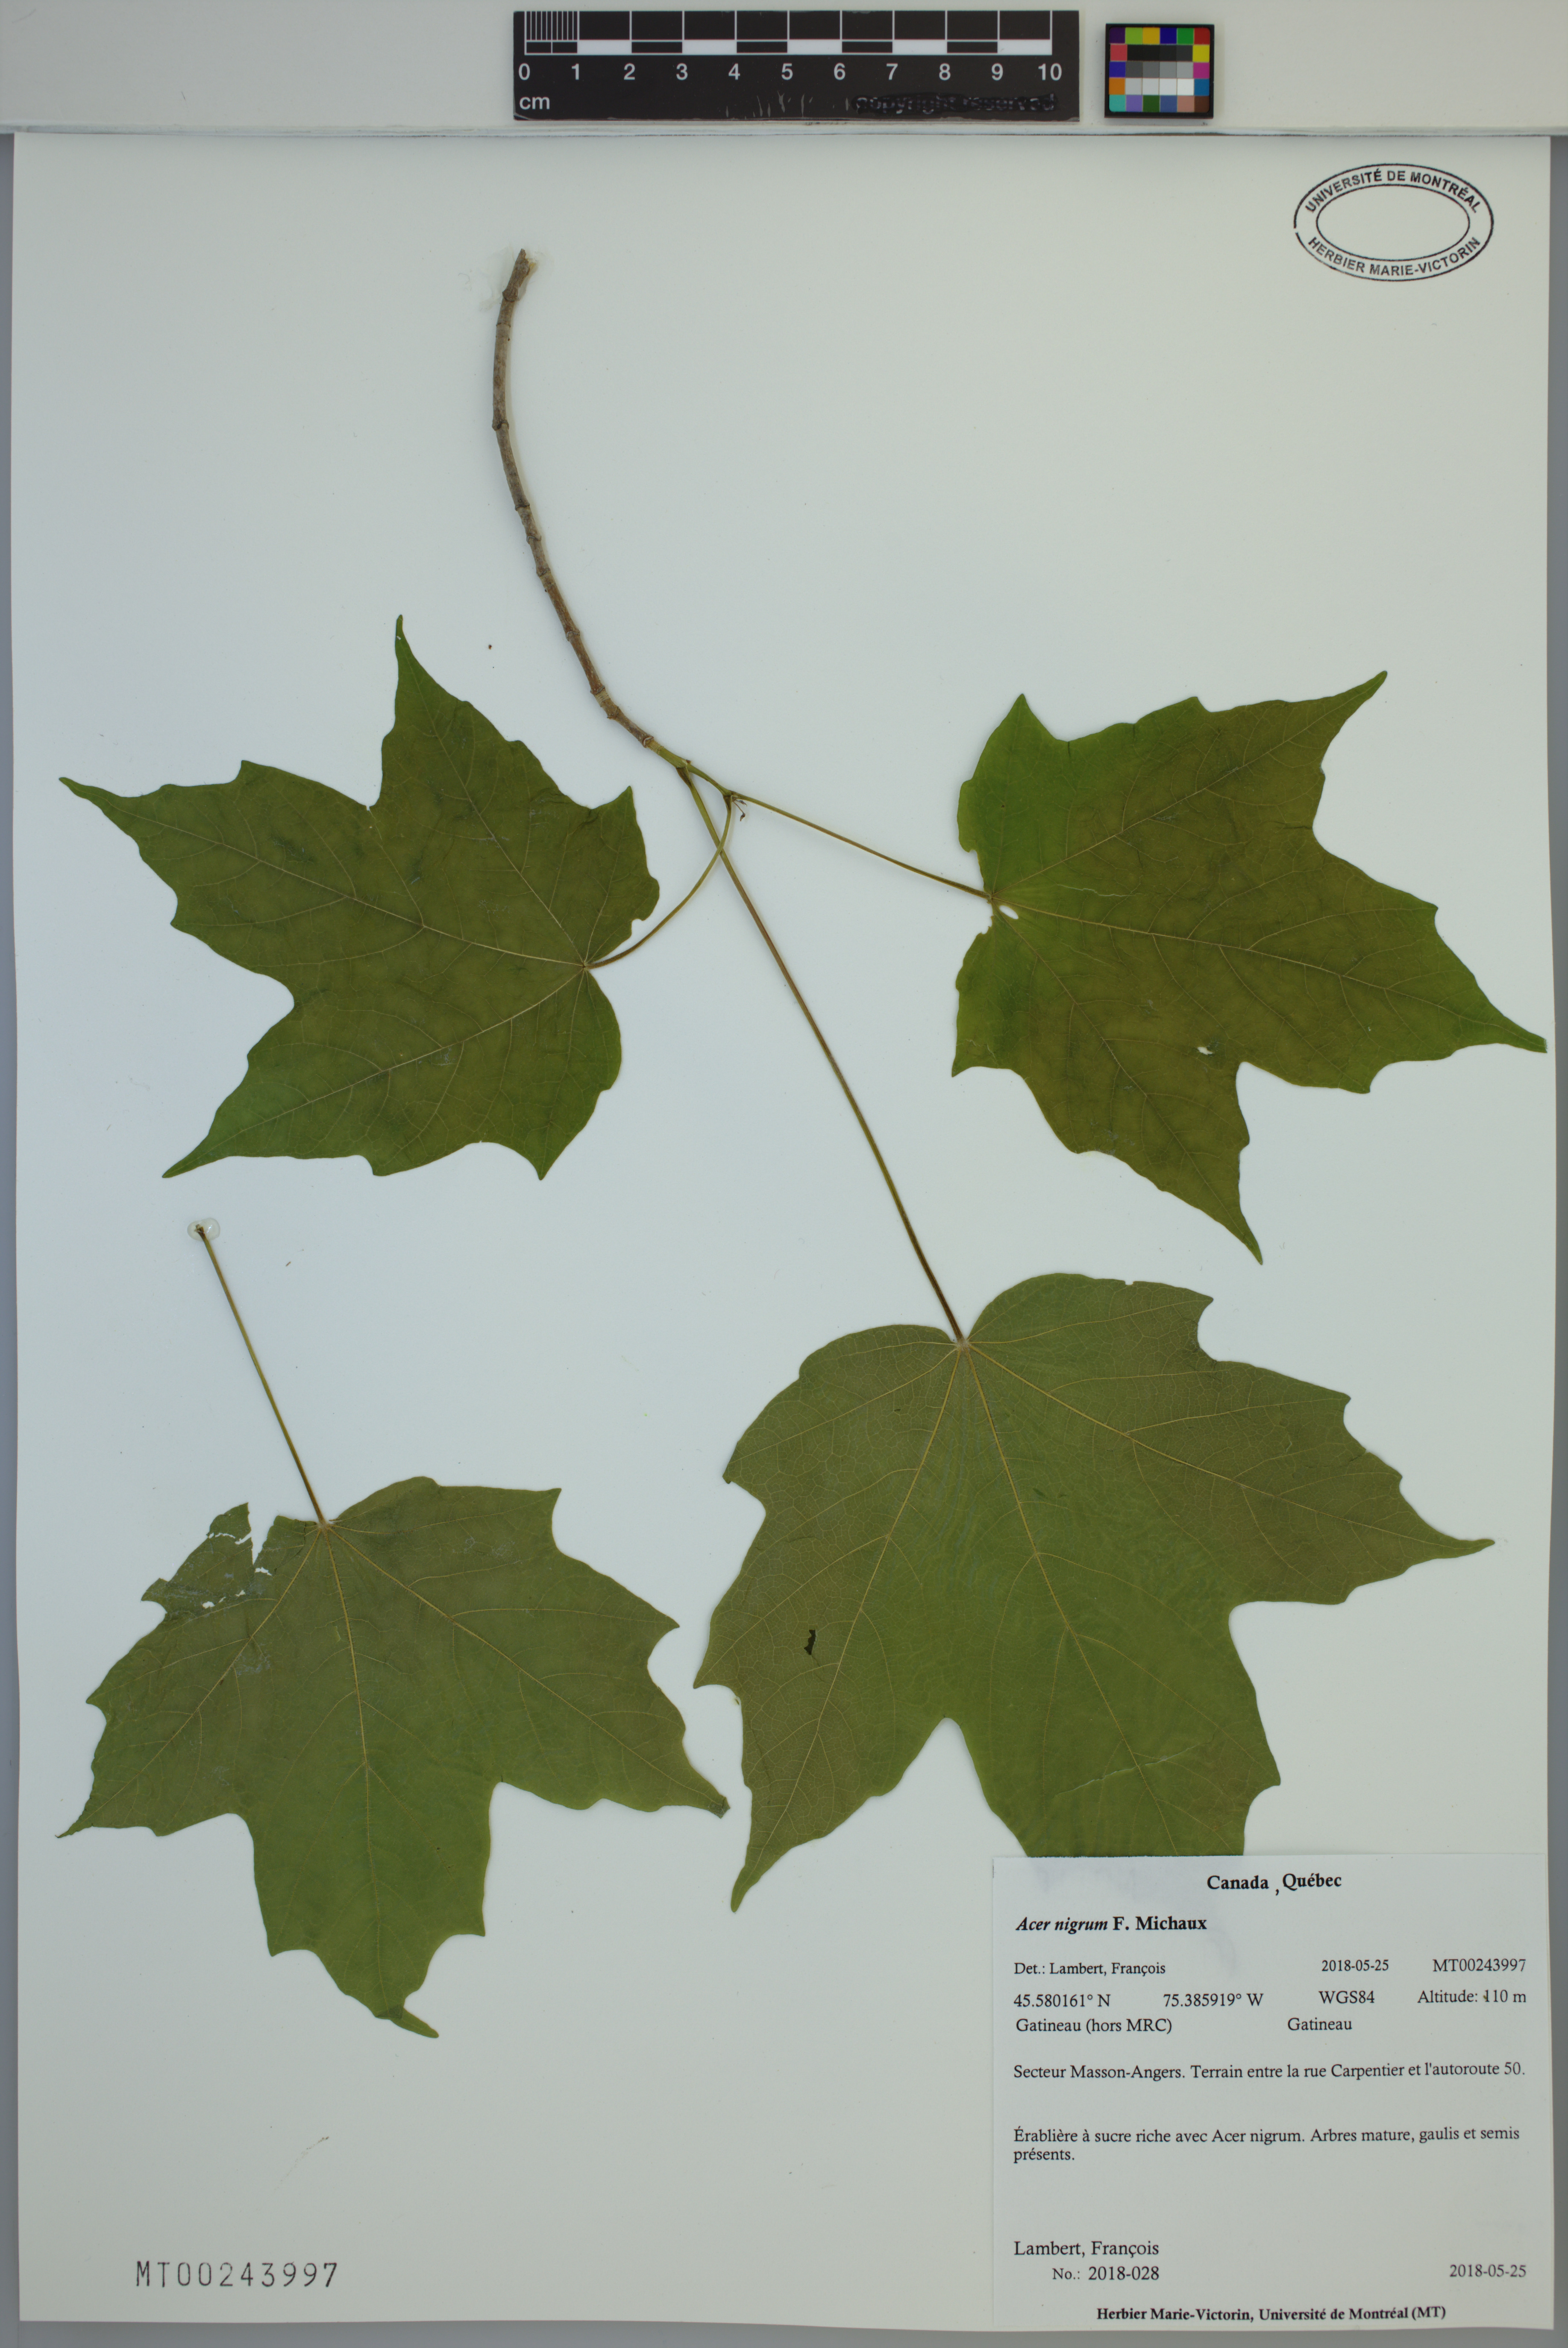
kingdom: Plantae
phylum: Tracheophyta
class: Magnoliopsida
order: Sapindales
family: Sapindaceae
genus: Acer
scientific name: Acer nigrum
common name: Black maple
